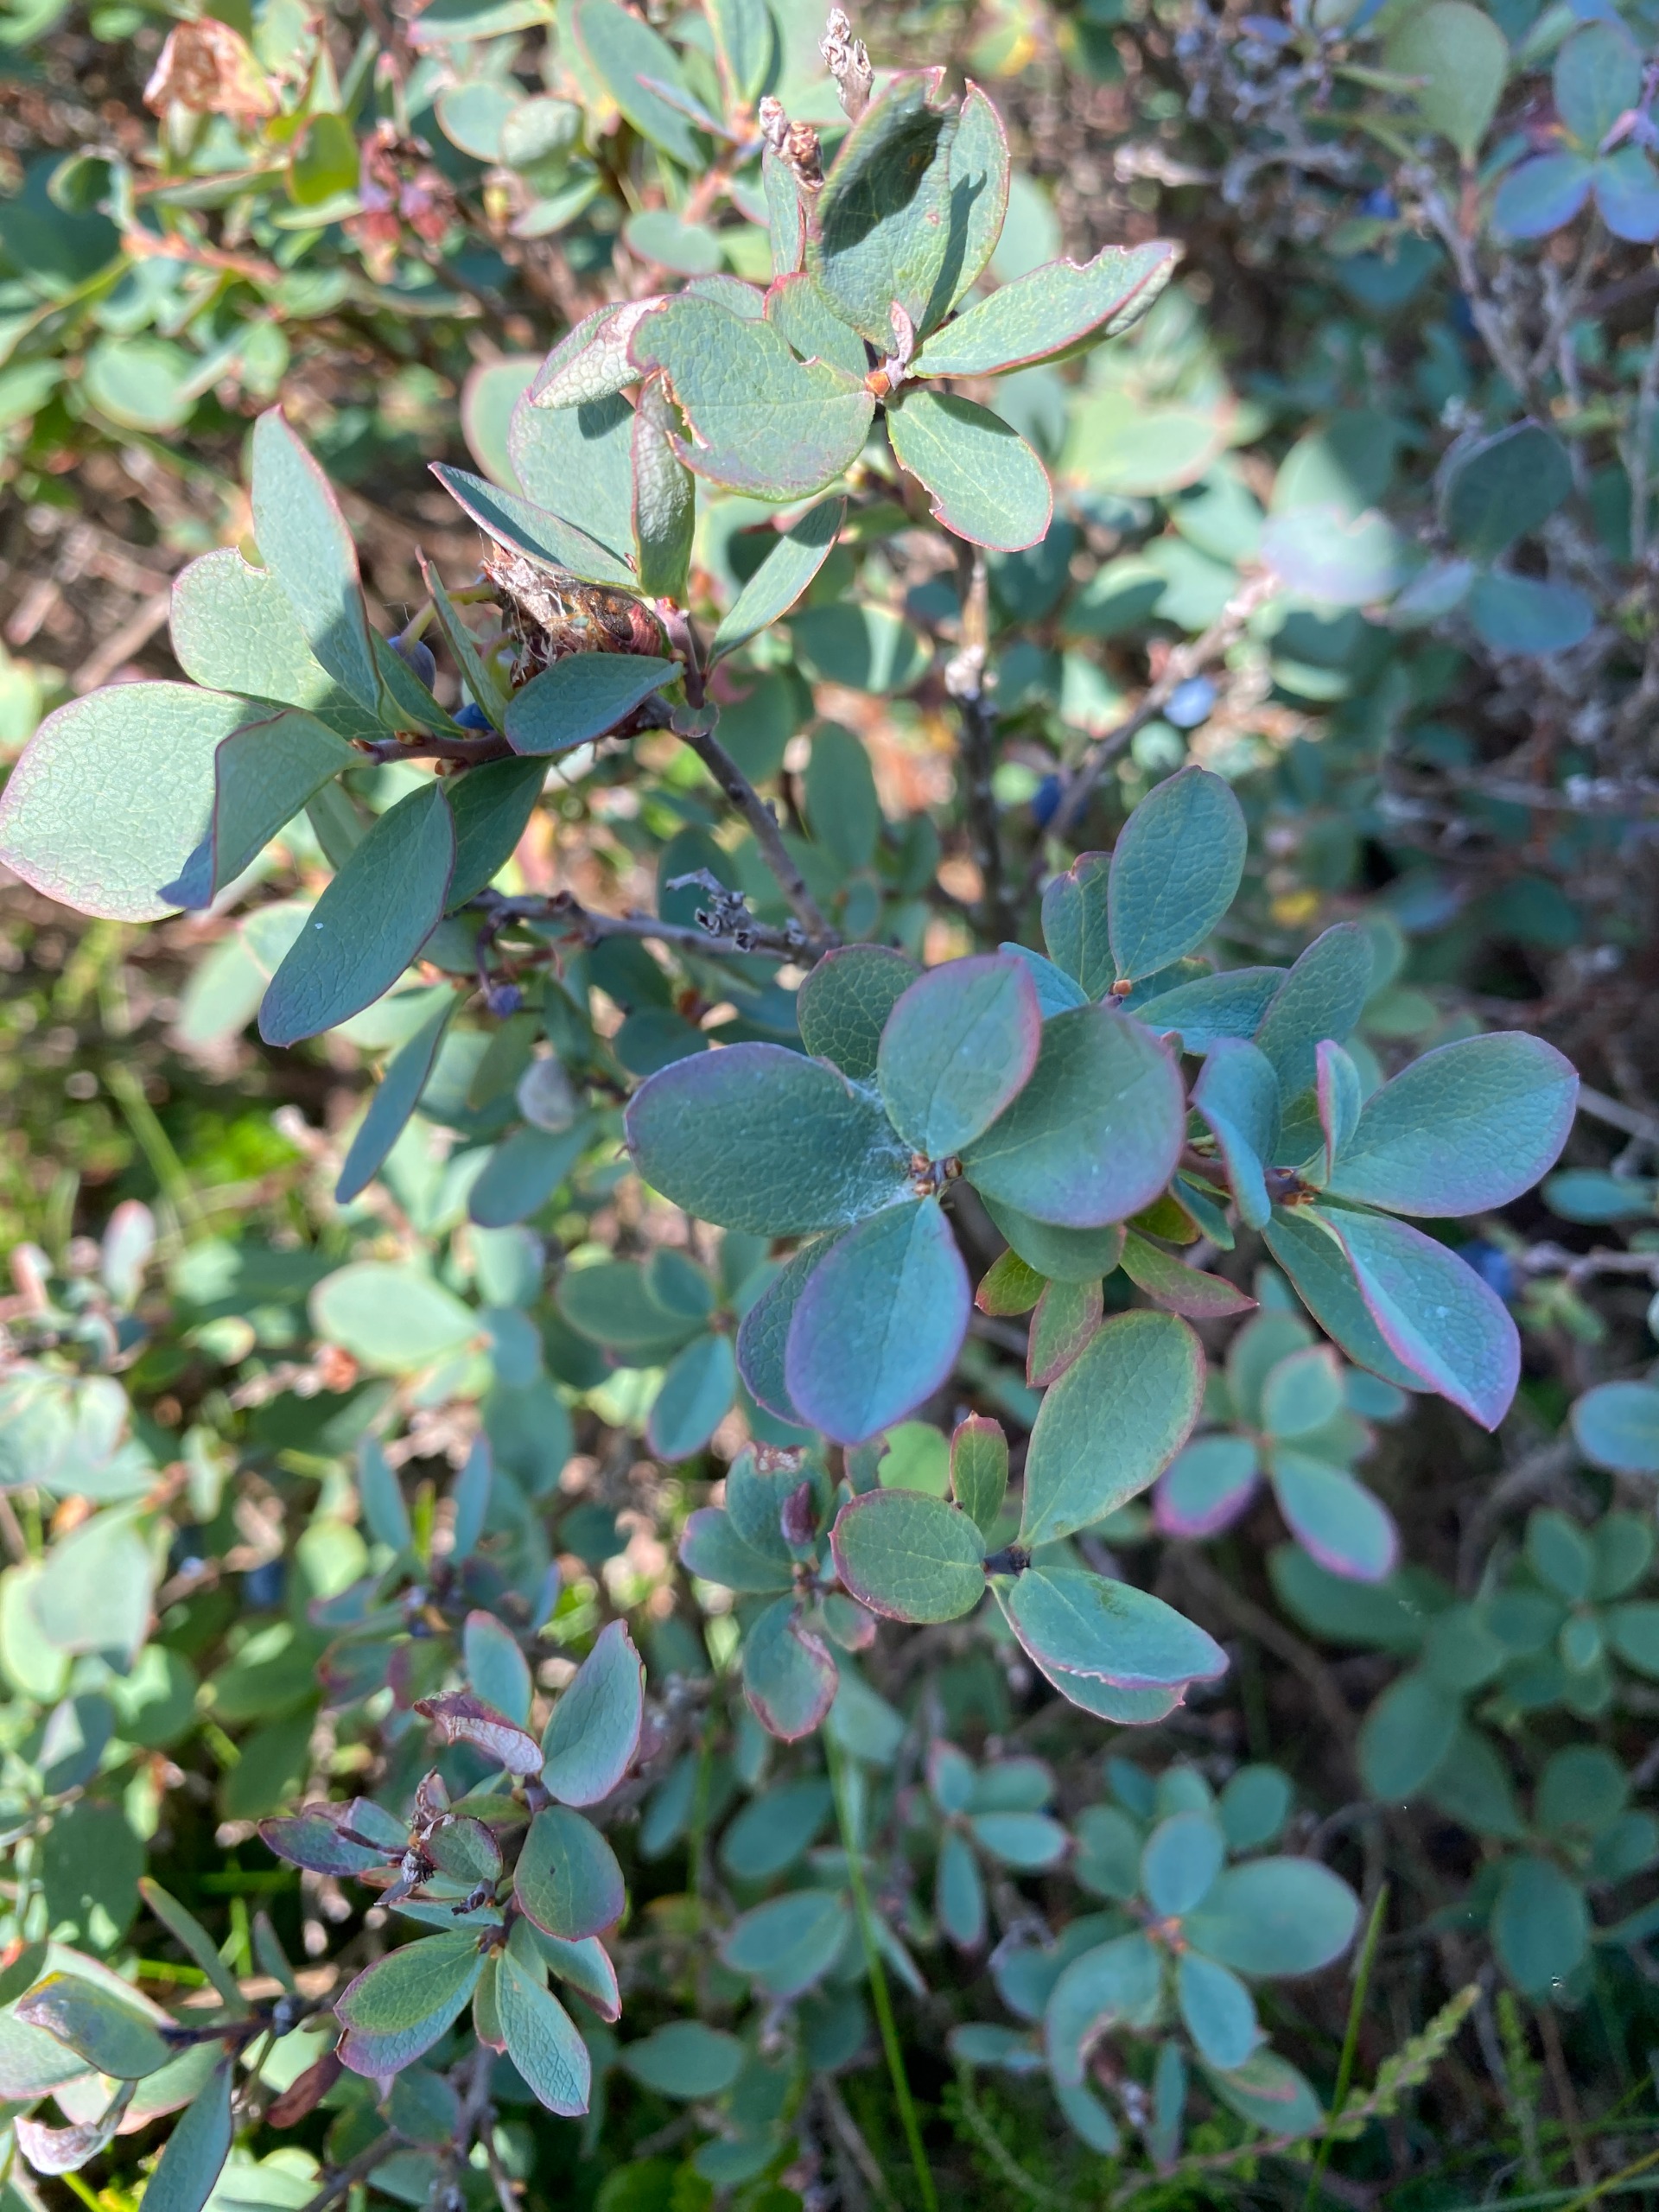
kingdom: Plantae
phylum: Tracheophyta
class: Magnoliopsida
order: Ericales
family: Ericaceae
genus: Vaccinium
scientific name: Vaccinium uliginosum
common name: Mose-bølle
